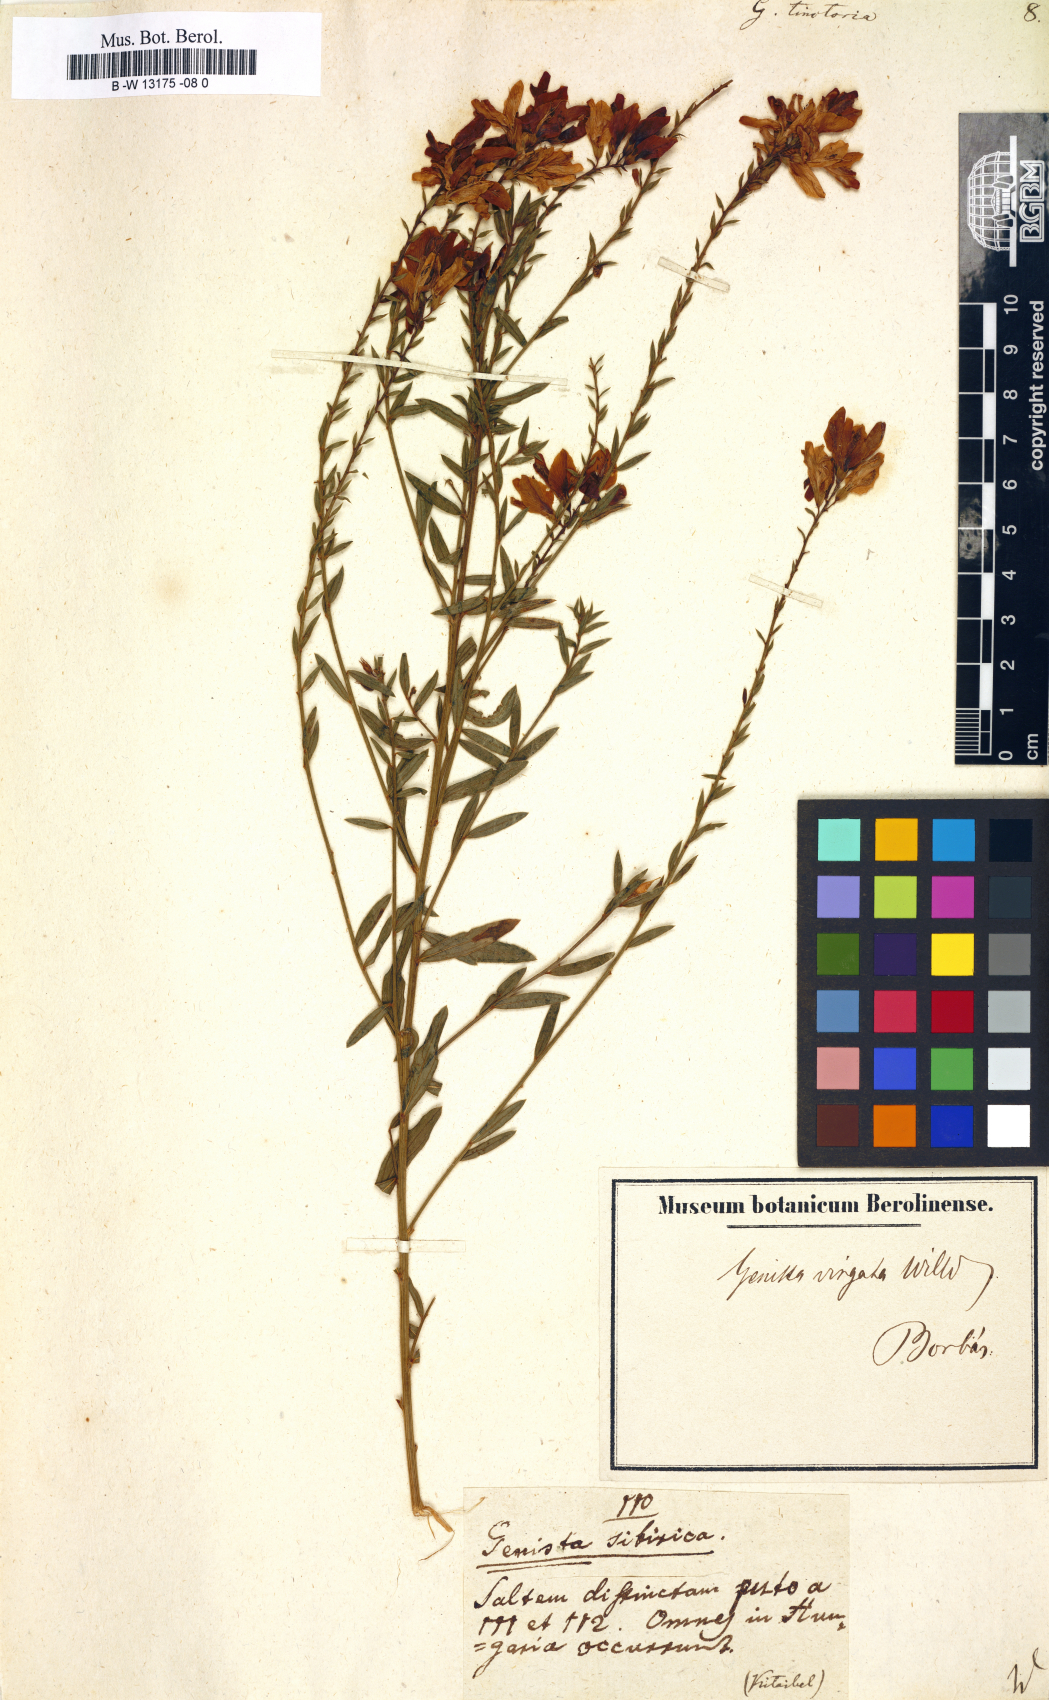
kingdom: Plantae
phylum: Tracheophyta
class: Magnoliopsida
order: Fabales
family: Fabaceae
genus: Genista
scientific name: Genista tinctoria
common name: Dyer's greenweed
